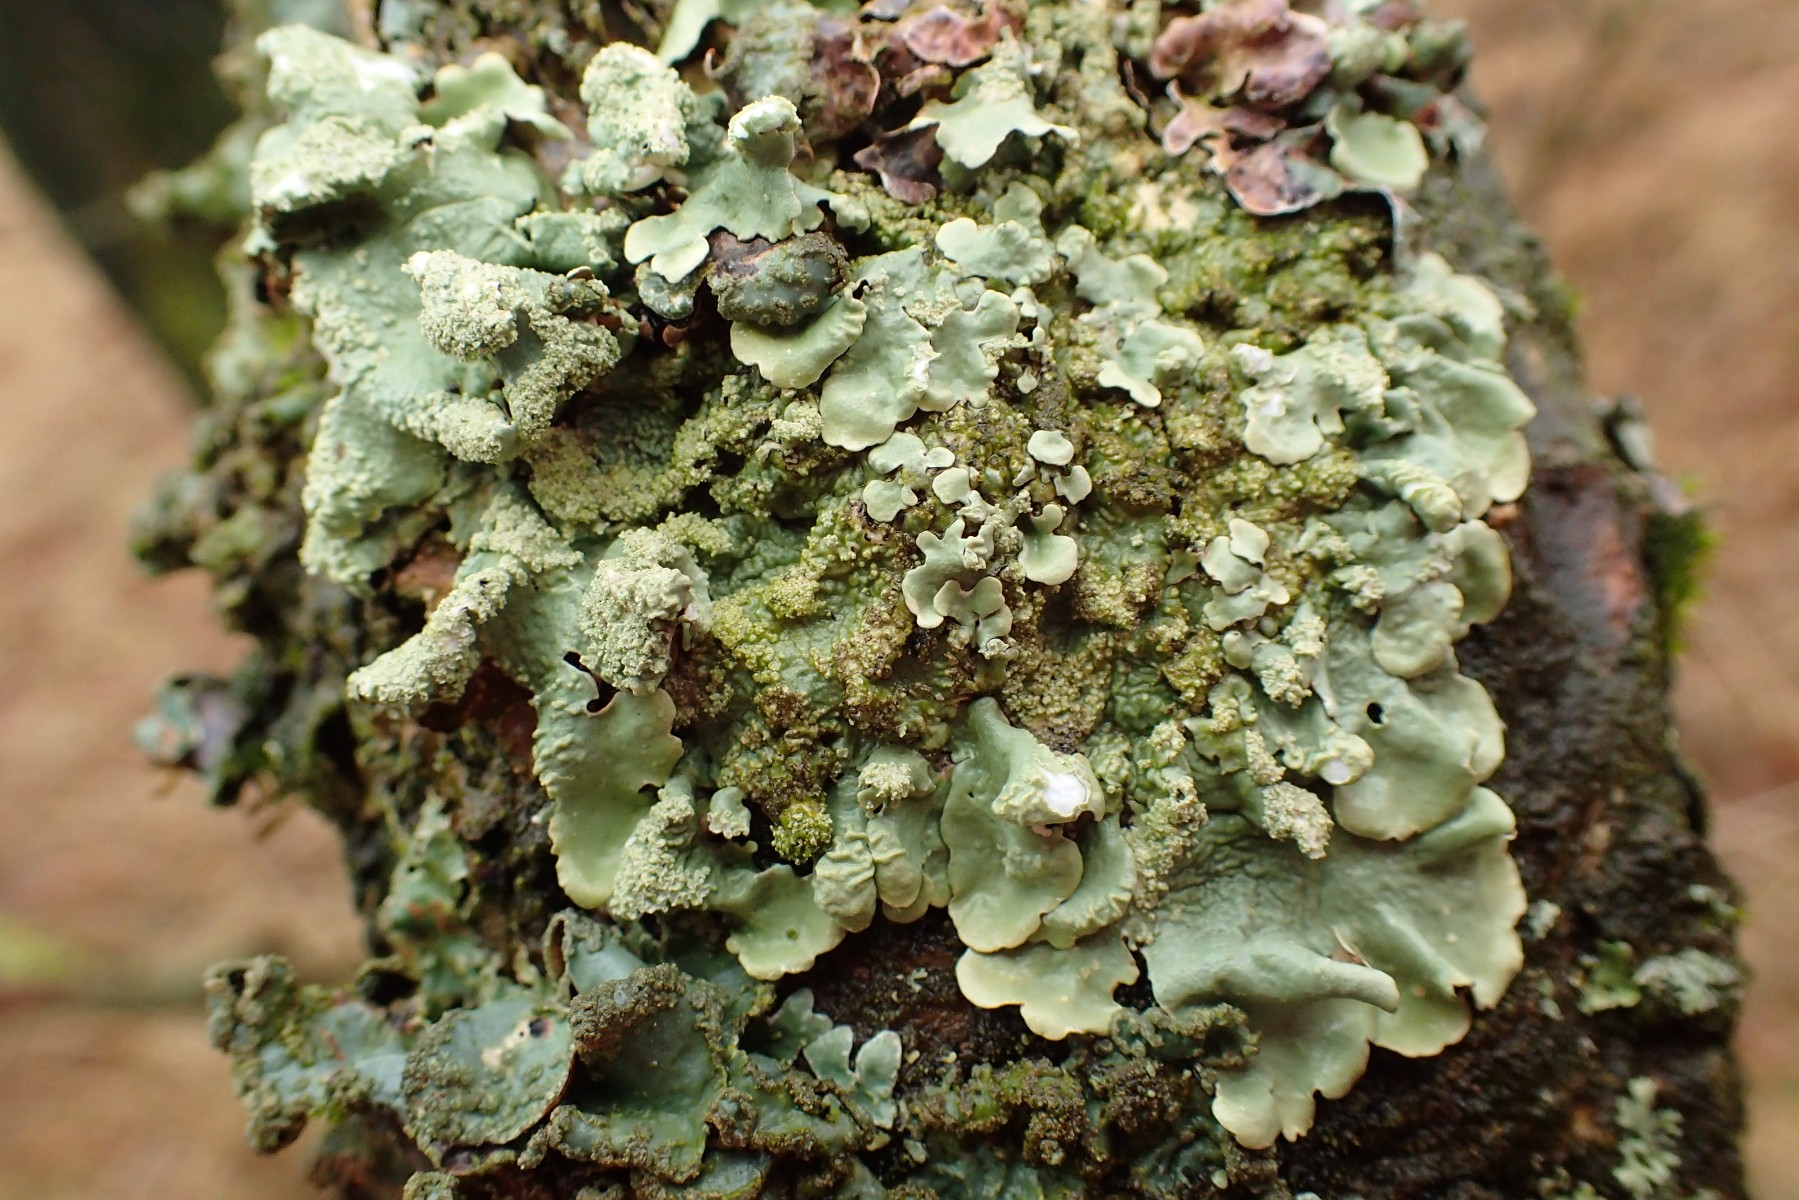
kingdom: Fungi
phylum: Ascomycota
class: Lecanoromycetes
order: Lecanorales
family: Parmeliaceae
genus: Flavoparmelia
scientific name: Flavoparmelia caperata
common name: gulgrøn skållav
